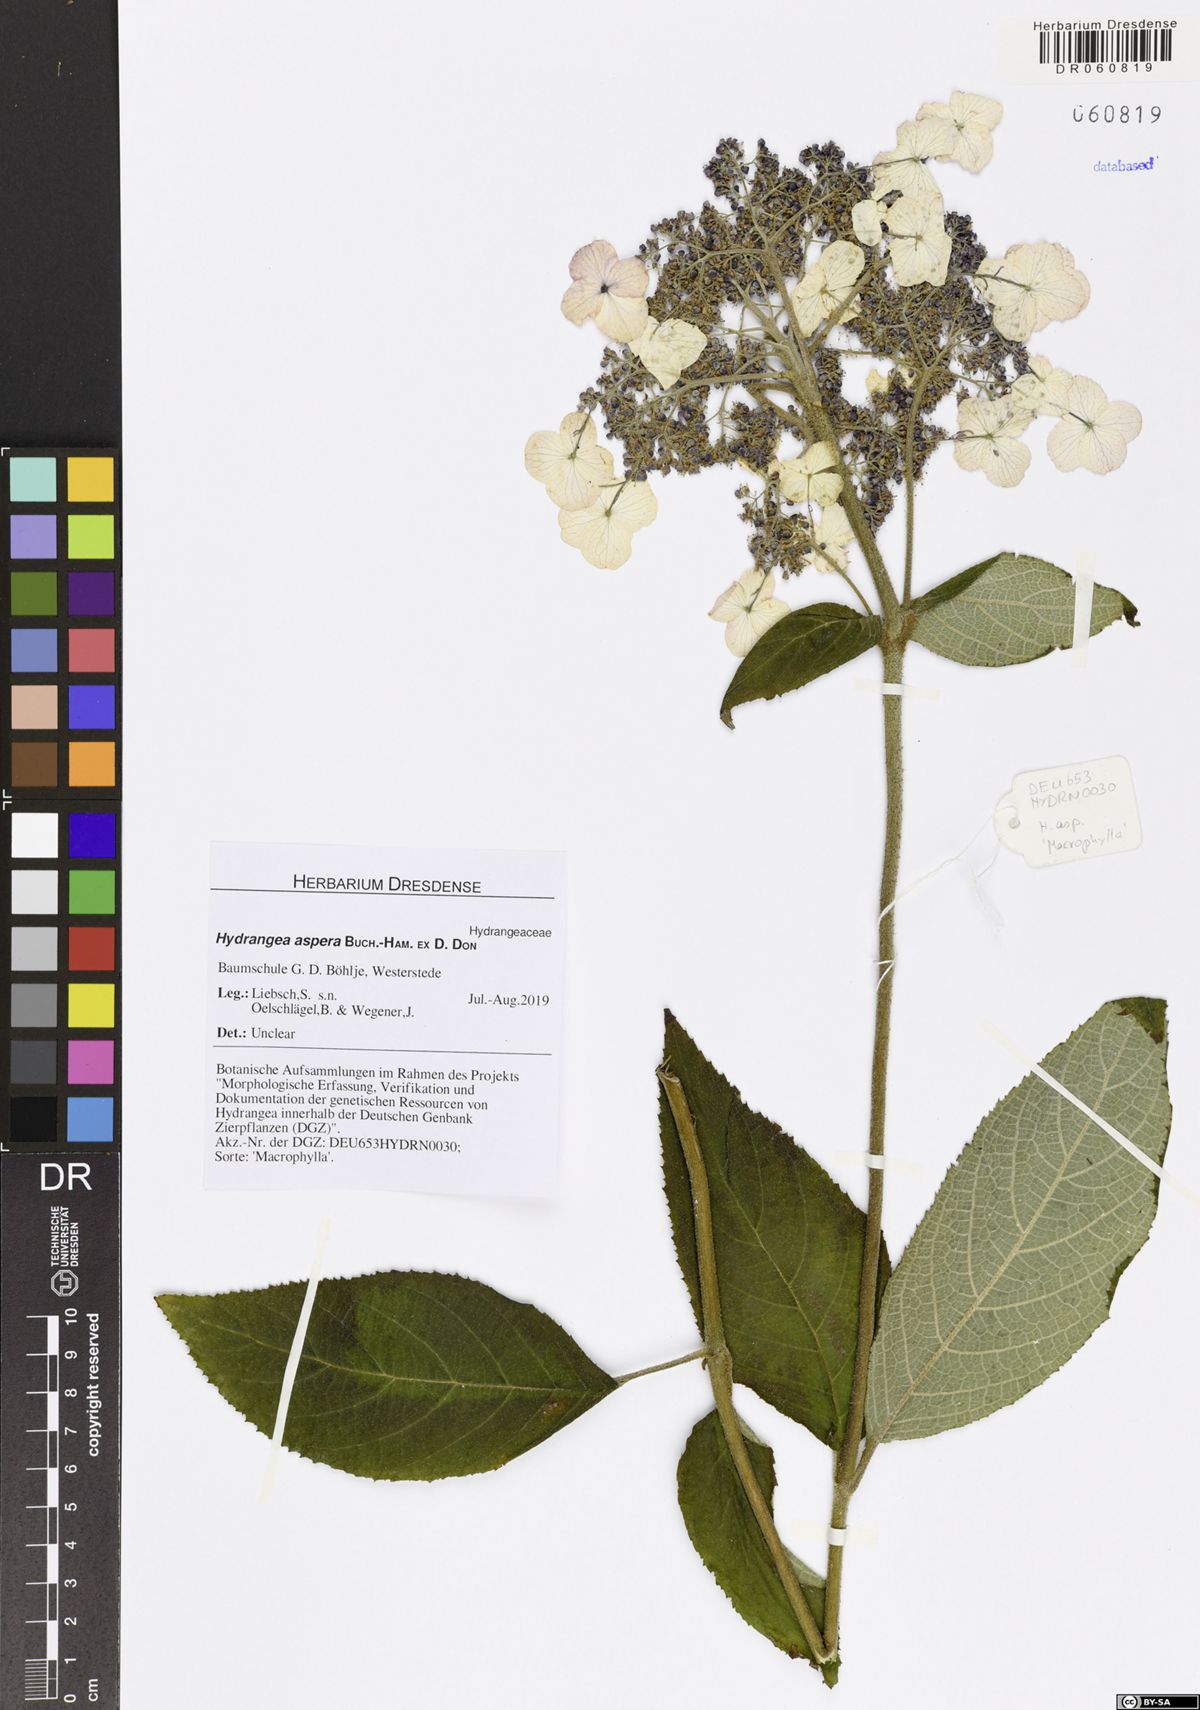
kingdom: Plantae
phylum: Tracheophyta
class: Magnoliopsida
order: Cornales
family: Hydrangeaceae
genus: Hydrangea
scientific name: Hydrangea aspera
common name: Rough-leaf hydrangea
